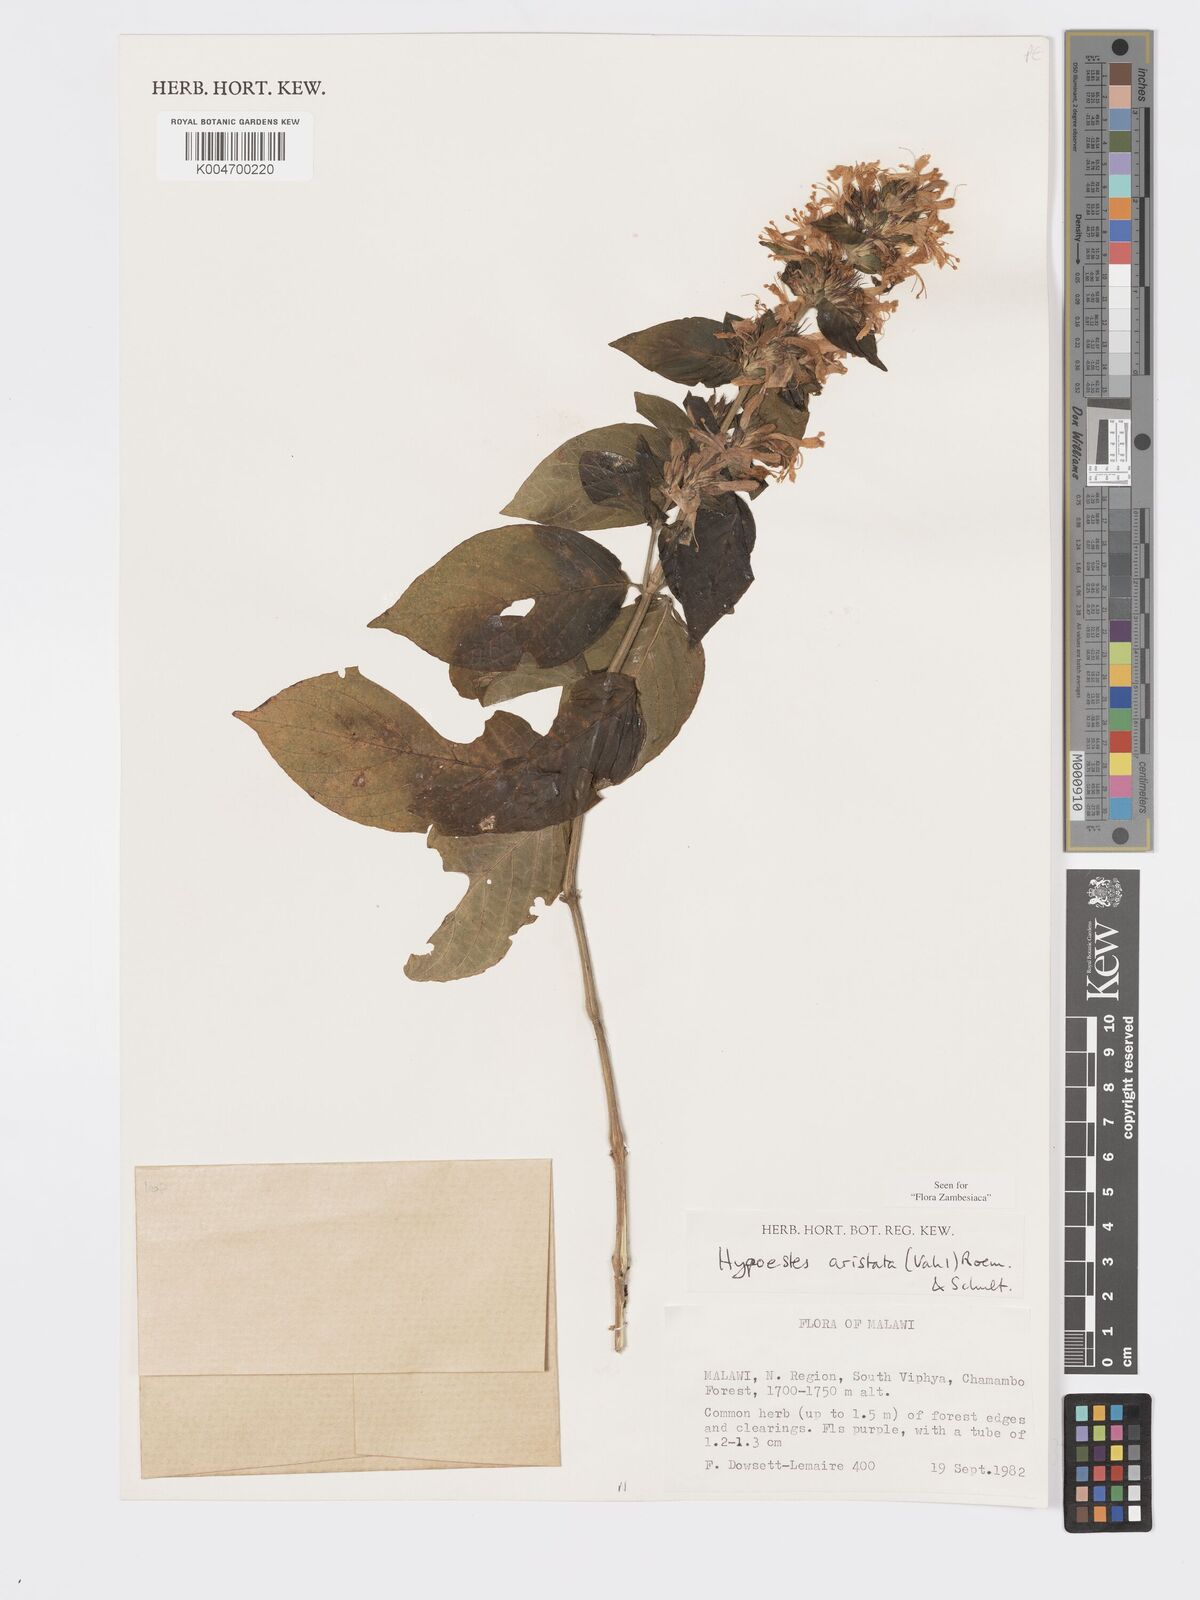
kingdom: Plantae
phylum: Tracheophyta
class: Magnoliopsida
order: Lamiales
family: Acanthaceae
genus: Hypoestes
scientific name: Hypoestes aristata
